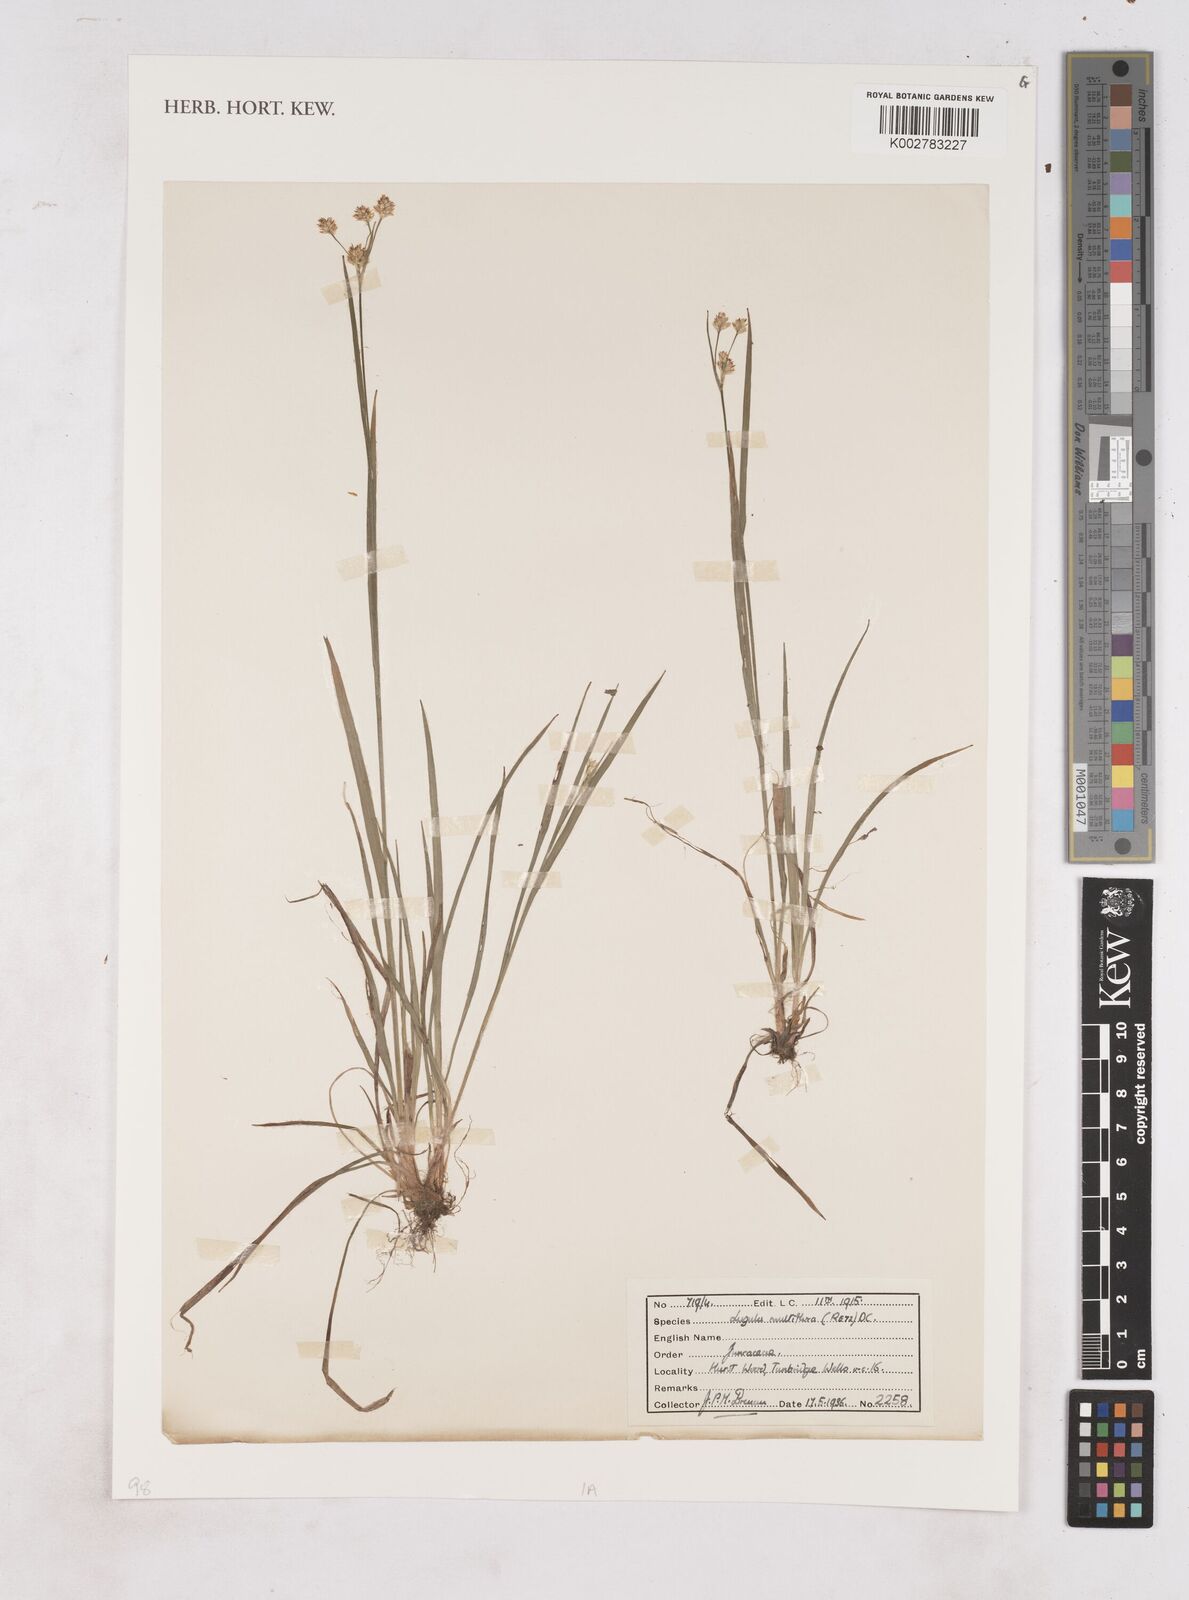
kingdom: Plantae
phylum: Tracheophyta
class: Liliopsida
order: Poales
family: Juncaceae
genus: Luzula
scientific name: Luzula multiflora
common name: Heath wood-rush
